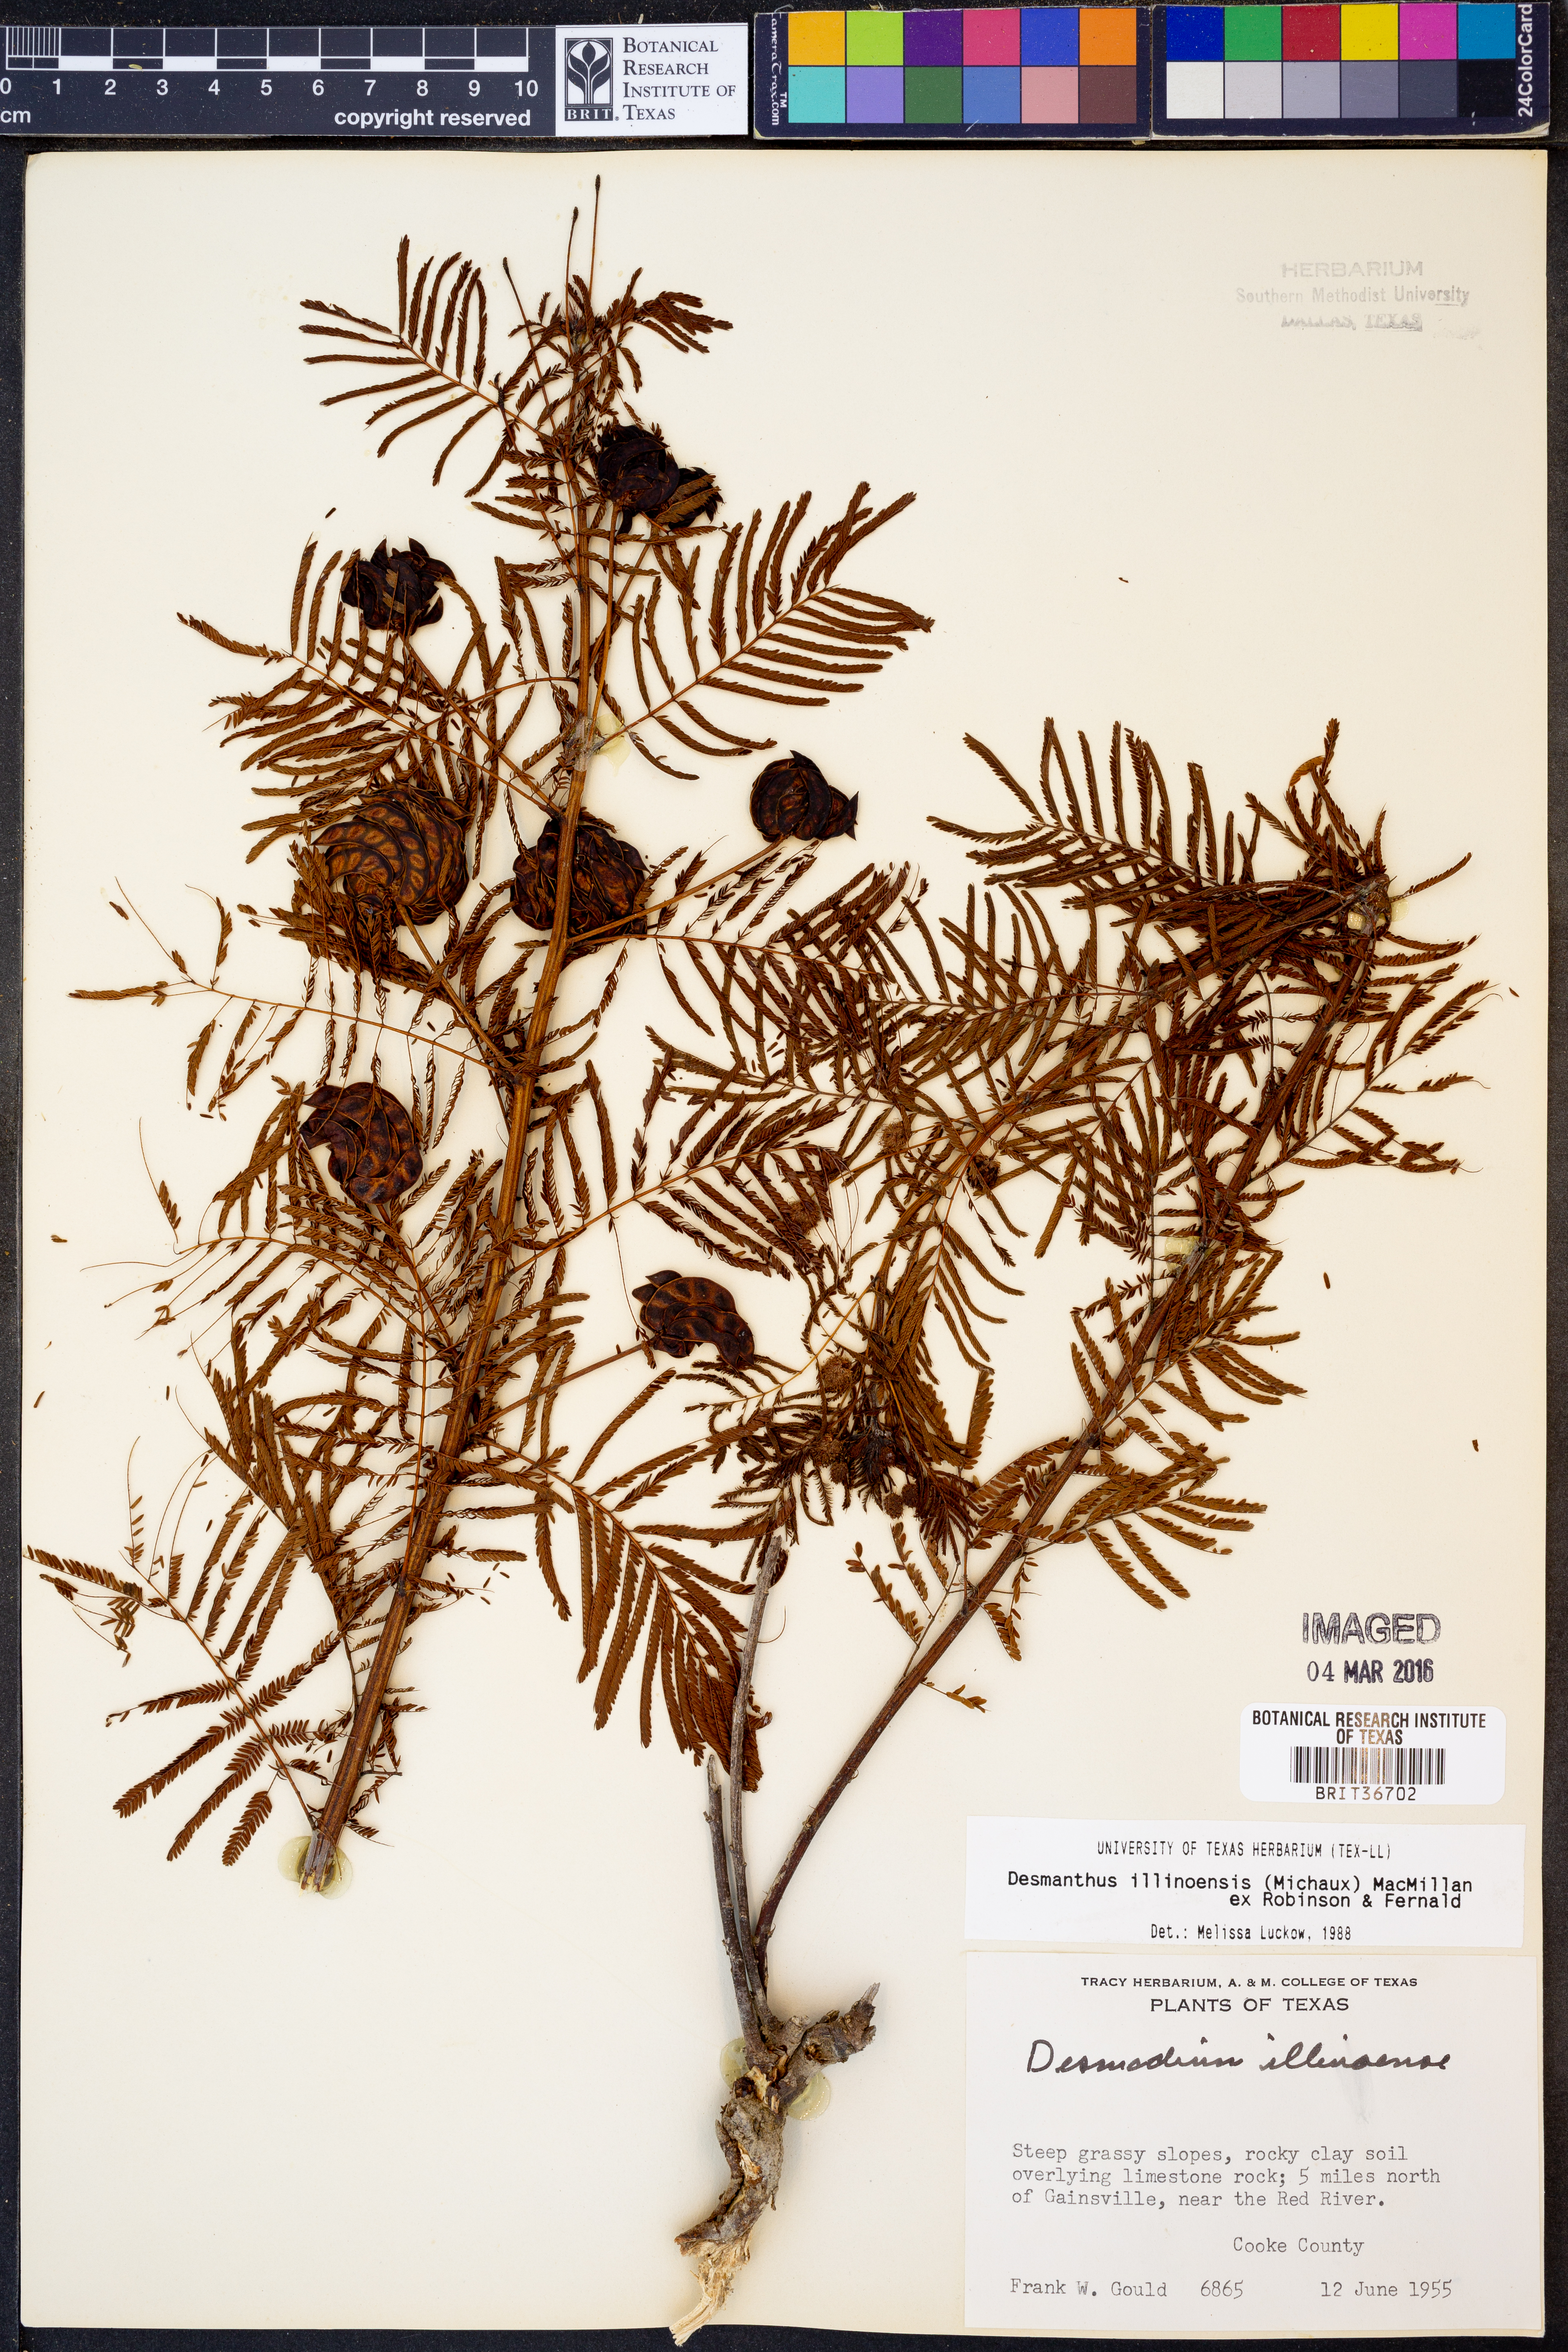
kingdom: Plantae
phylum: Tracheophyta
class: Magnoliopsida
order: Fabales
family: Fabaceae
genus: Desmanthus
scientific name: Desmanthus illinoensis
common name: Illinois bundle-flower
